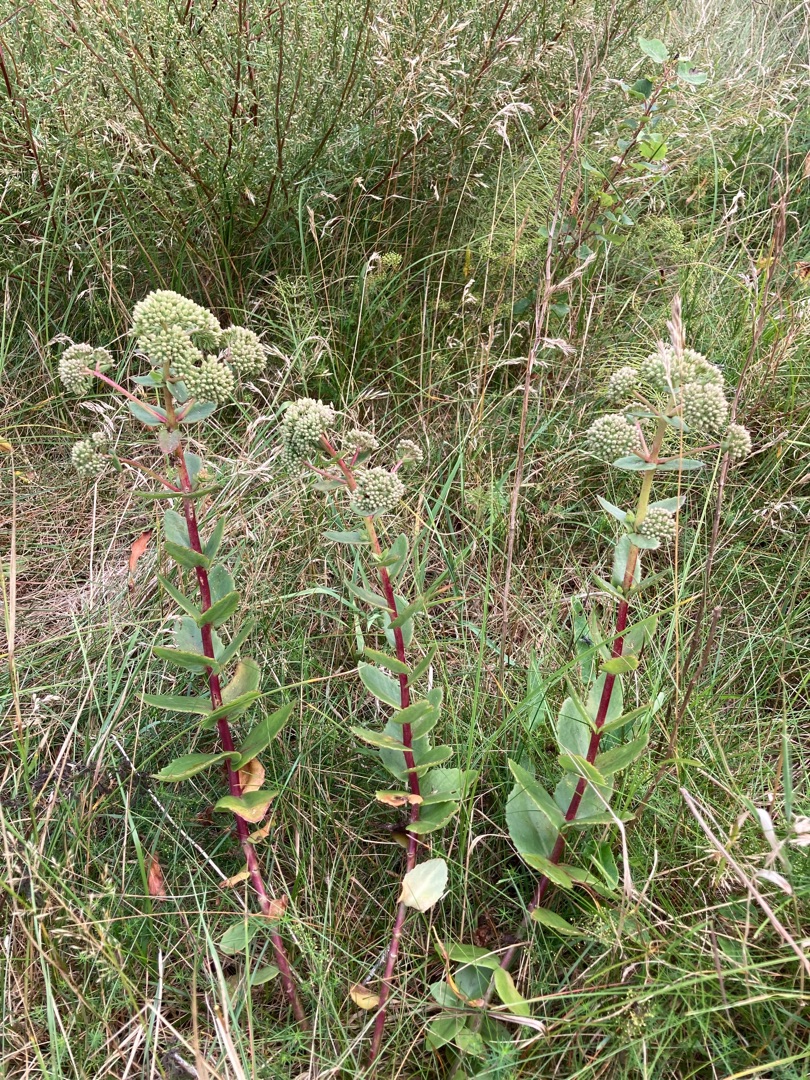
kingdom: Plantae
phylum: Tracheophyta
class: Magnoliopsida
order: Saxifragales
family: Crassulaceae
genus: Hylotelephium
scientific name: Hylotelephium maximum
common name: Almindelig sankthansurt
